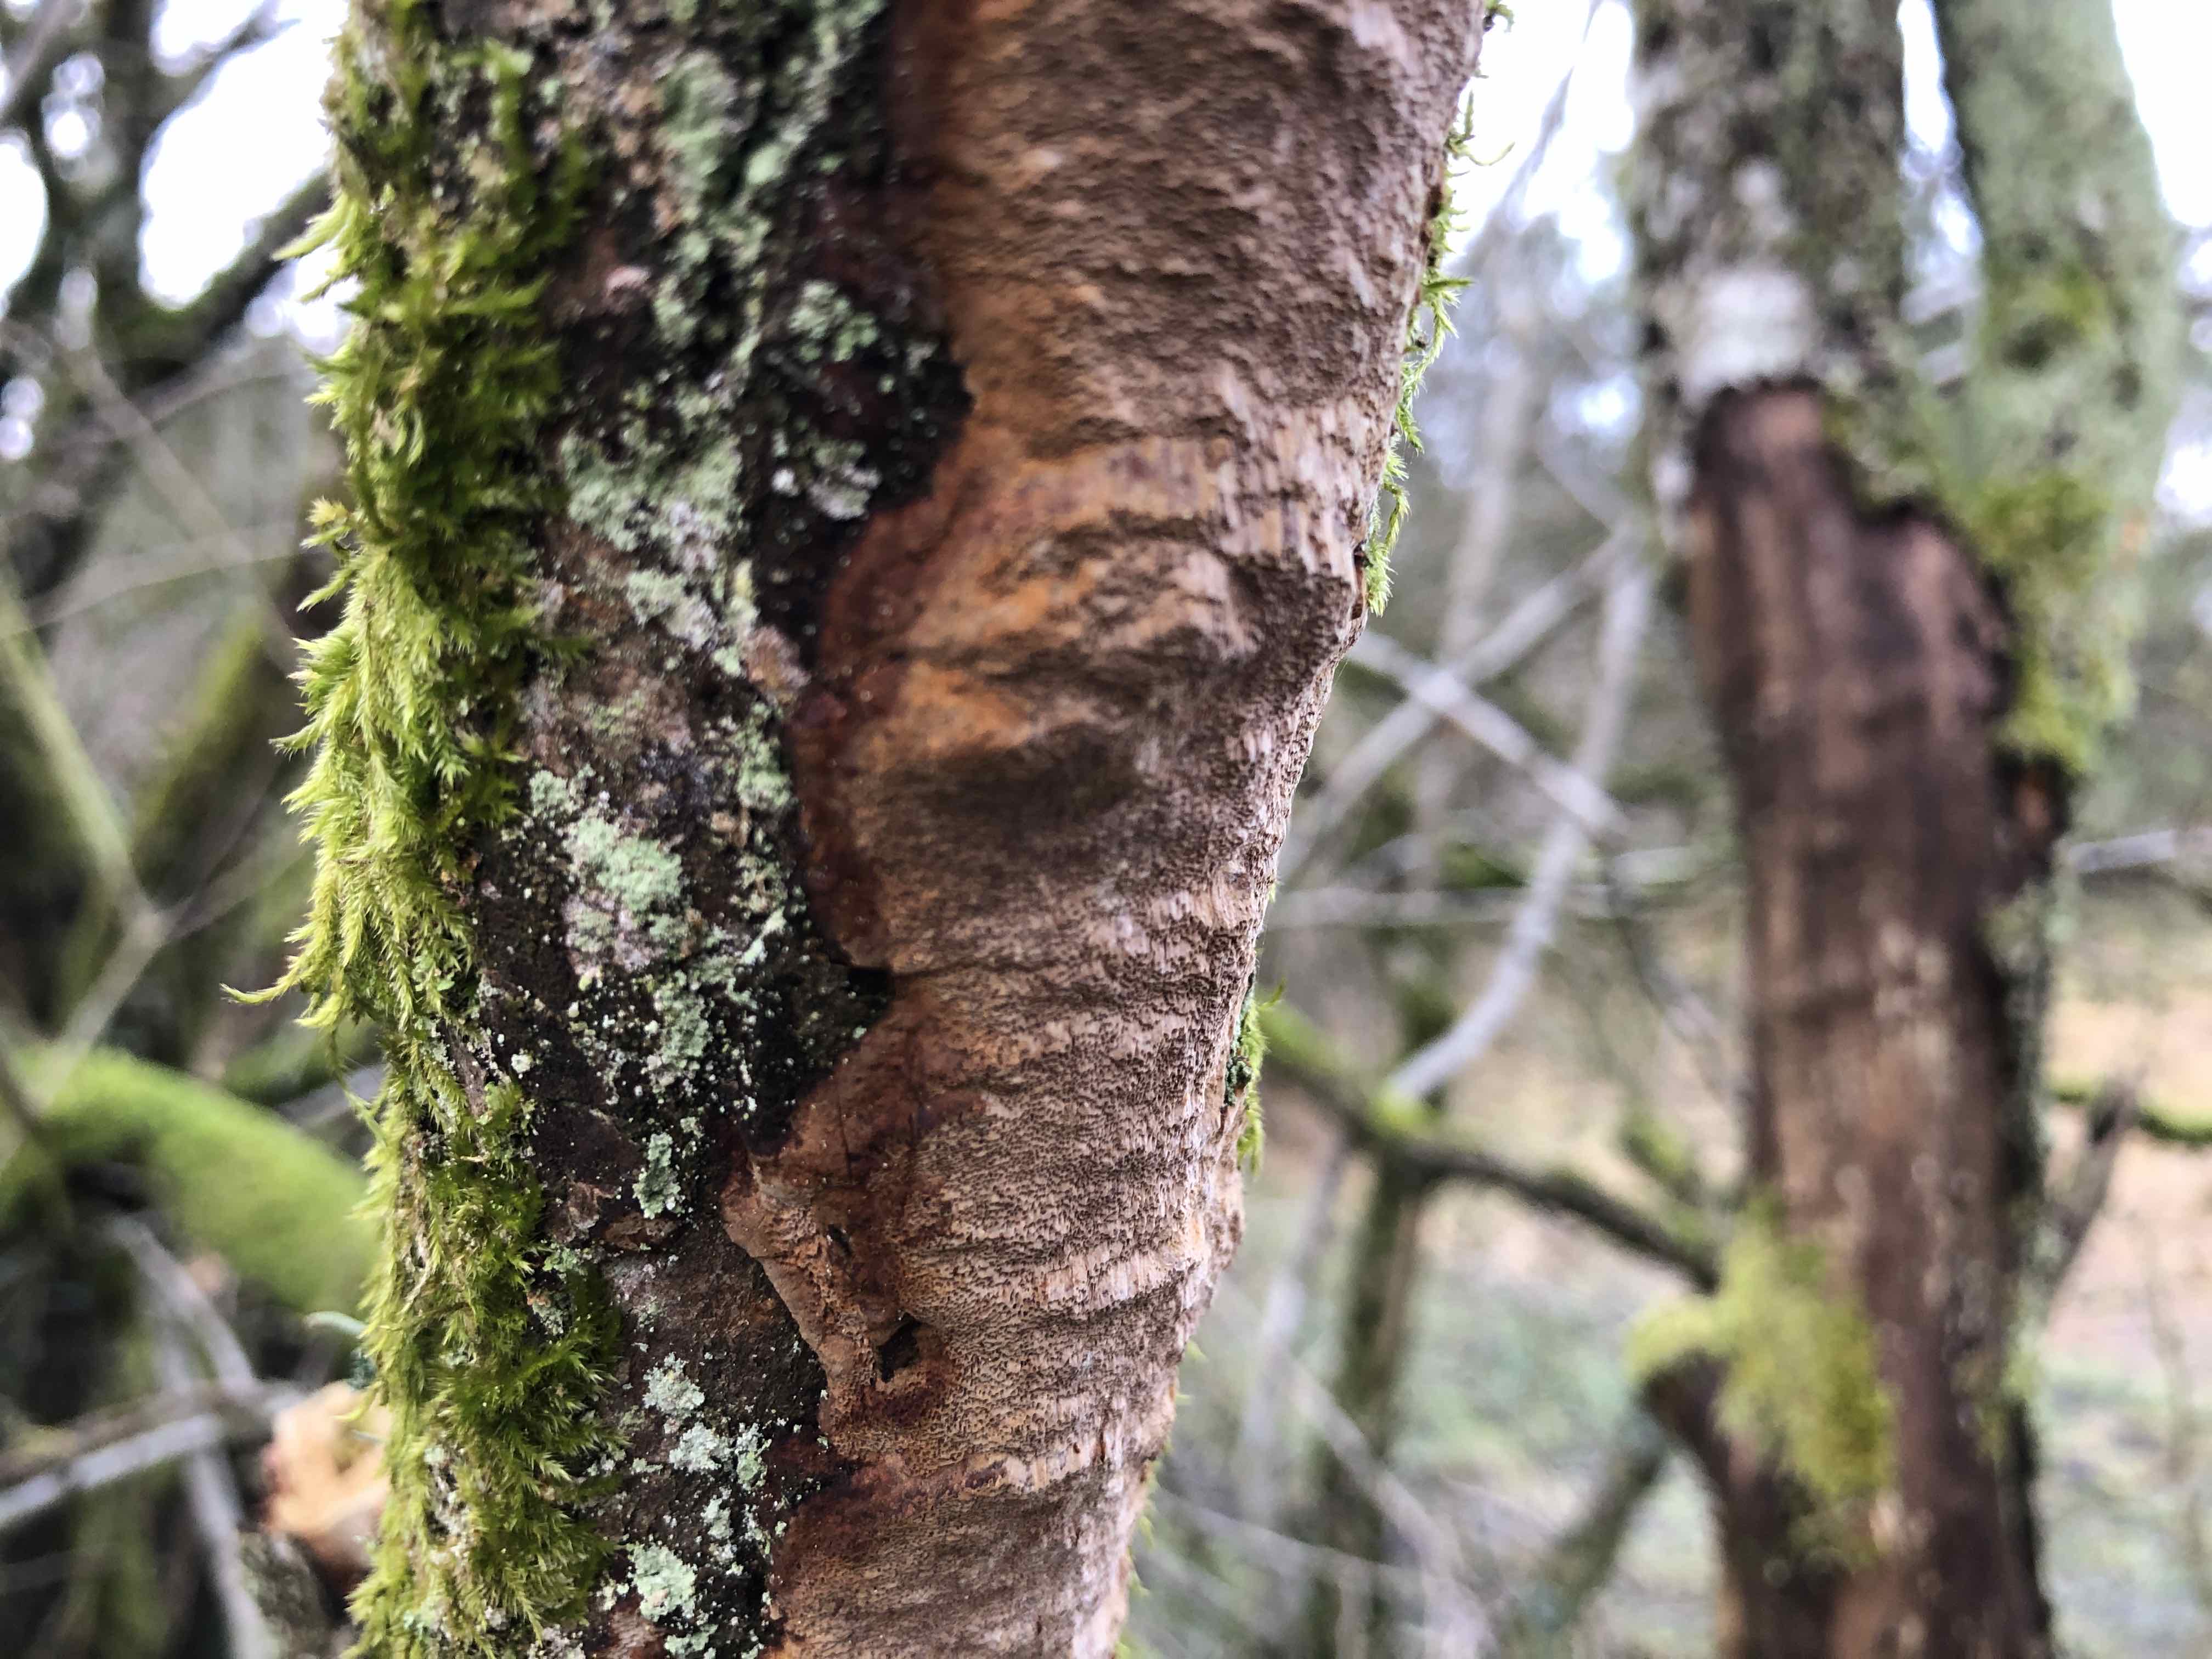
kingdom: Fungi
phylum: Basidiomycota
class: Agaricomycetes
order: Hymenochaetales
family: Hymenochaetaceae
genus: Fuscoporia
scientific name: Fuscoporia ferrea
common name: skorpe-ildporesvamp
